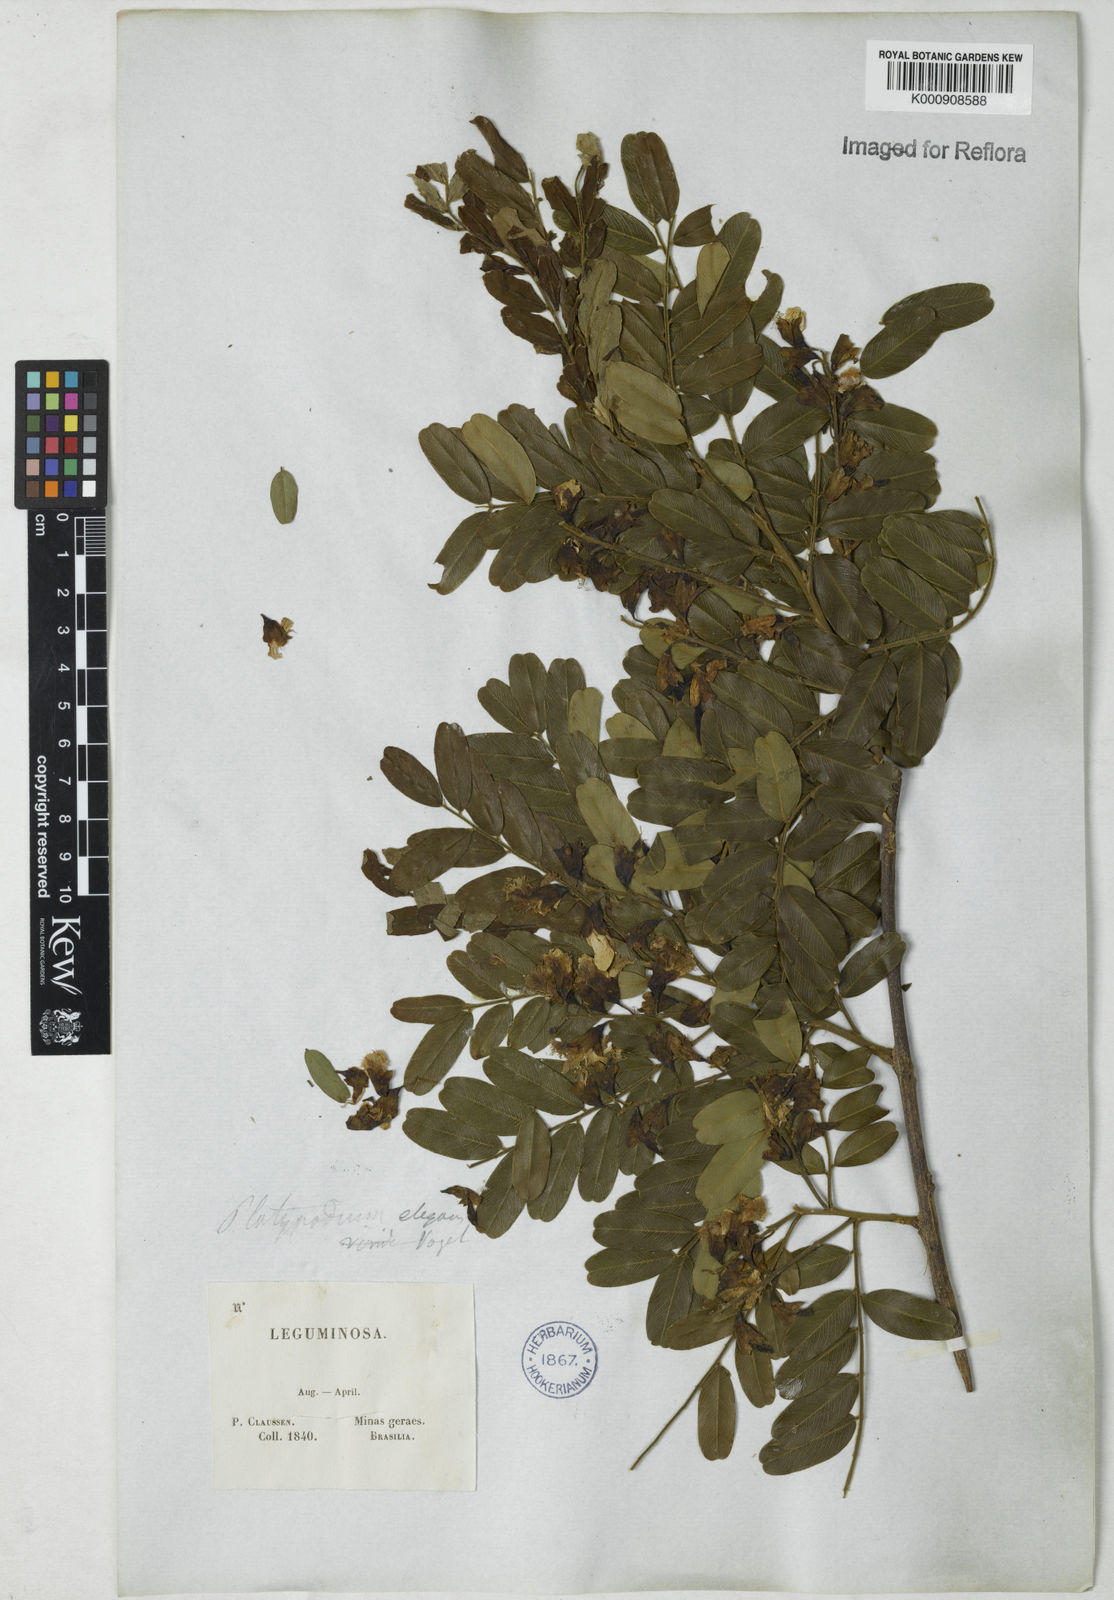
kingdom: Plantae
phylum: Tracheophyta
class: Magnoliopsida
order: Fabales
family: Fabaceae
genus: Platypodium
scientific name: Platypodium
